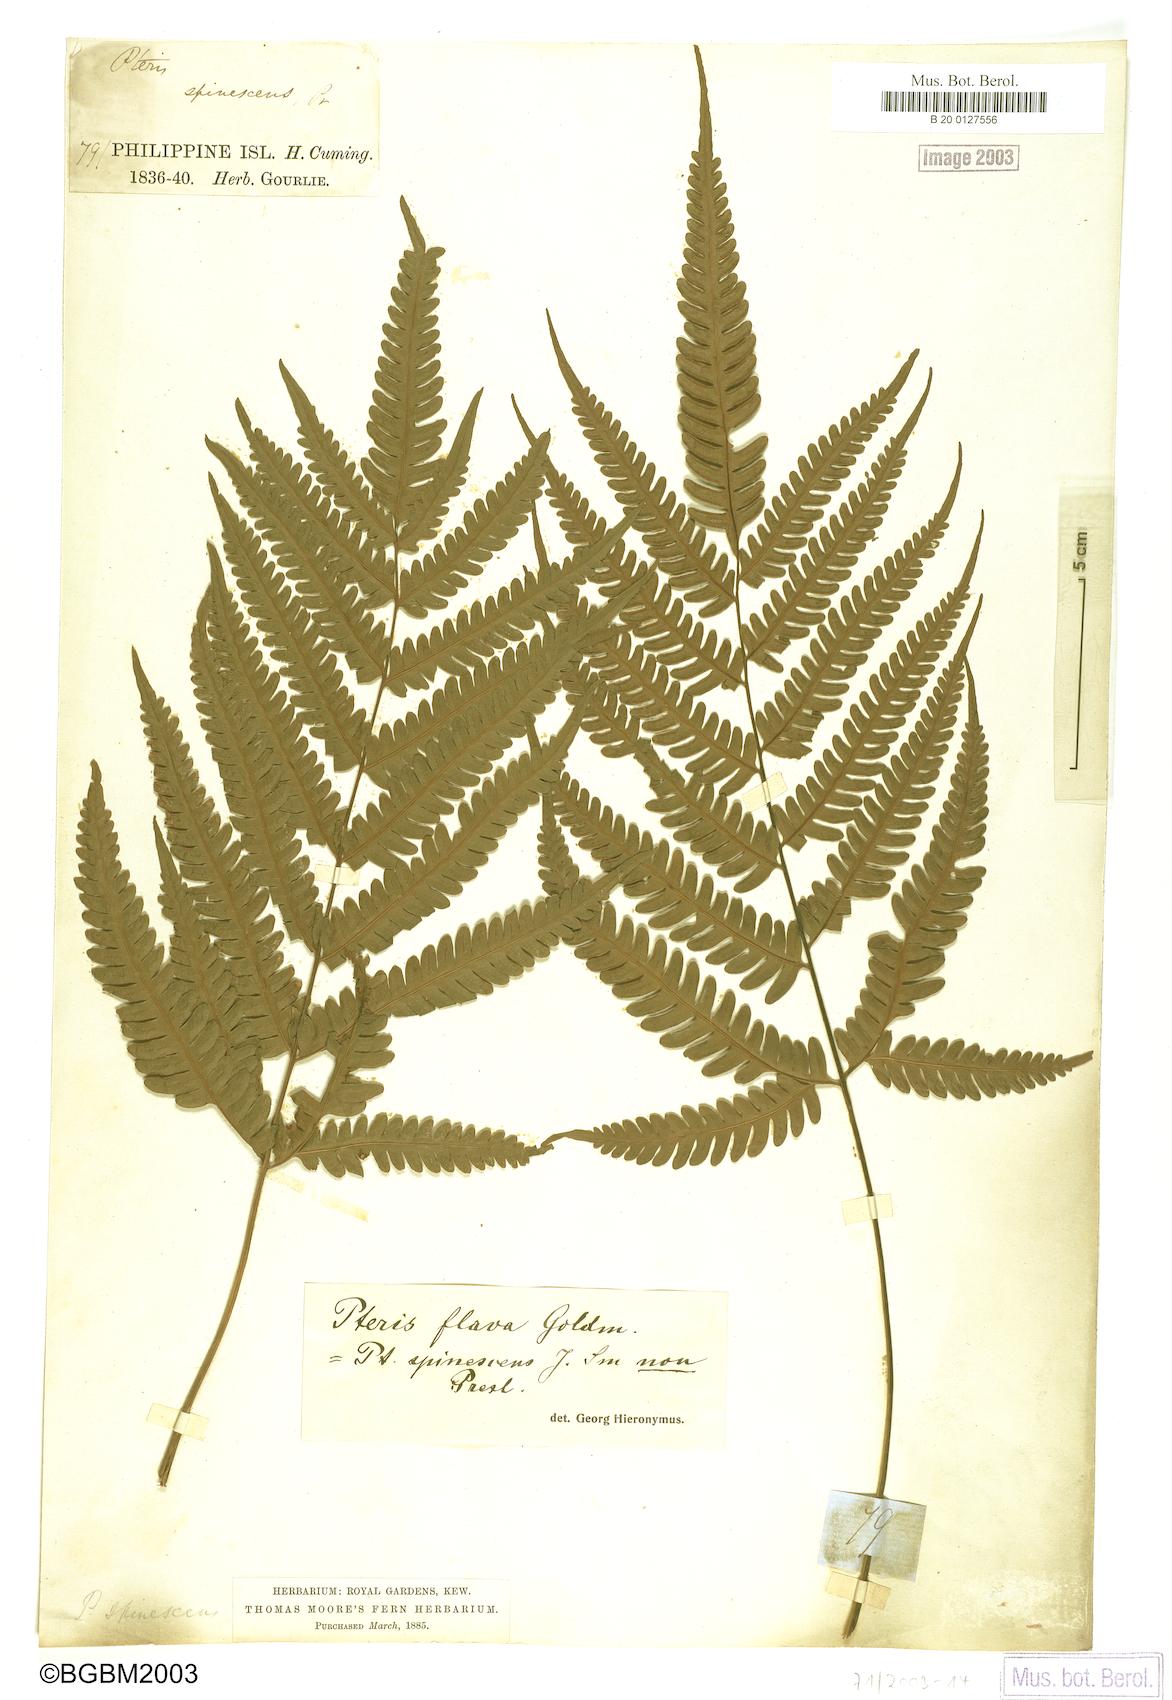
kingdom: Plantae
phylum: Tracheophyta
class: Polypodiopsida
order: Polypodiales
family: Pteridaceae
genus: Pteris
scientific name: Pteris glaucovirens
